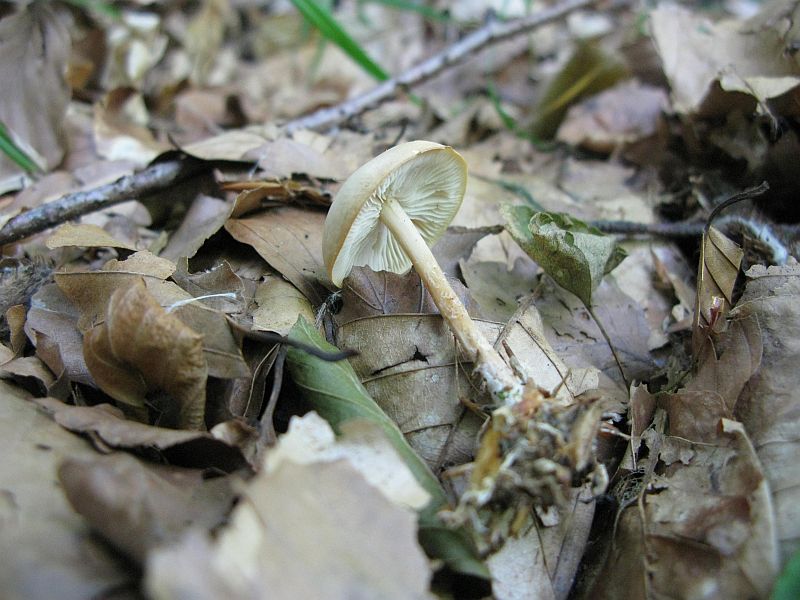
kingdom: Fungi
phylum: Basidiomycota
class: Agaricomycetes
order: Agaricales
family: Omphalotaceae
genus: Gymnopus
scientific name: Gymnopus dryophilus
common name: løv-fladhat
